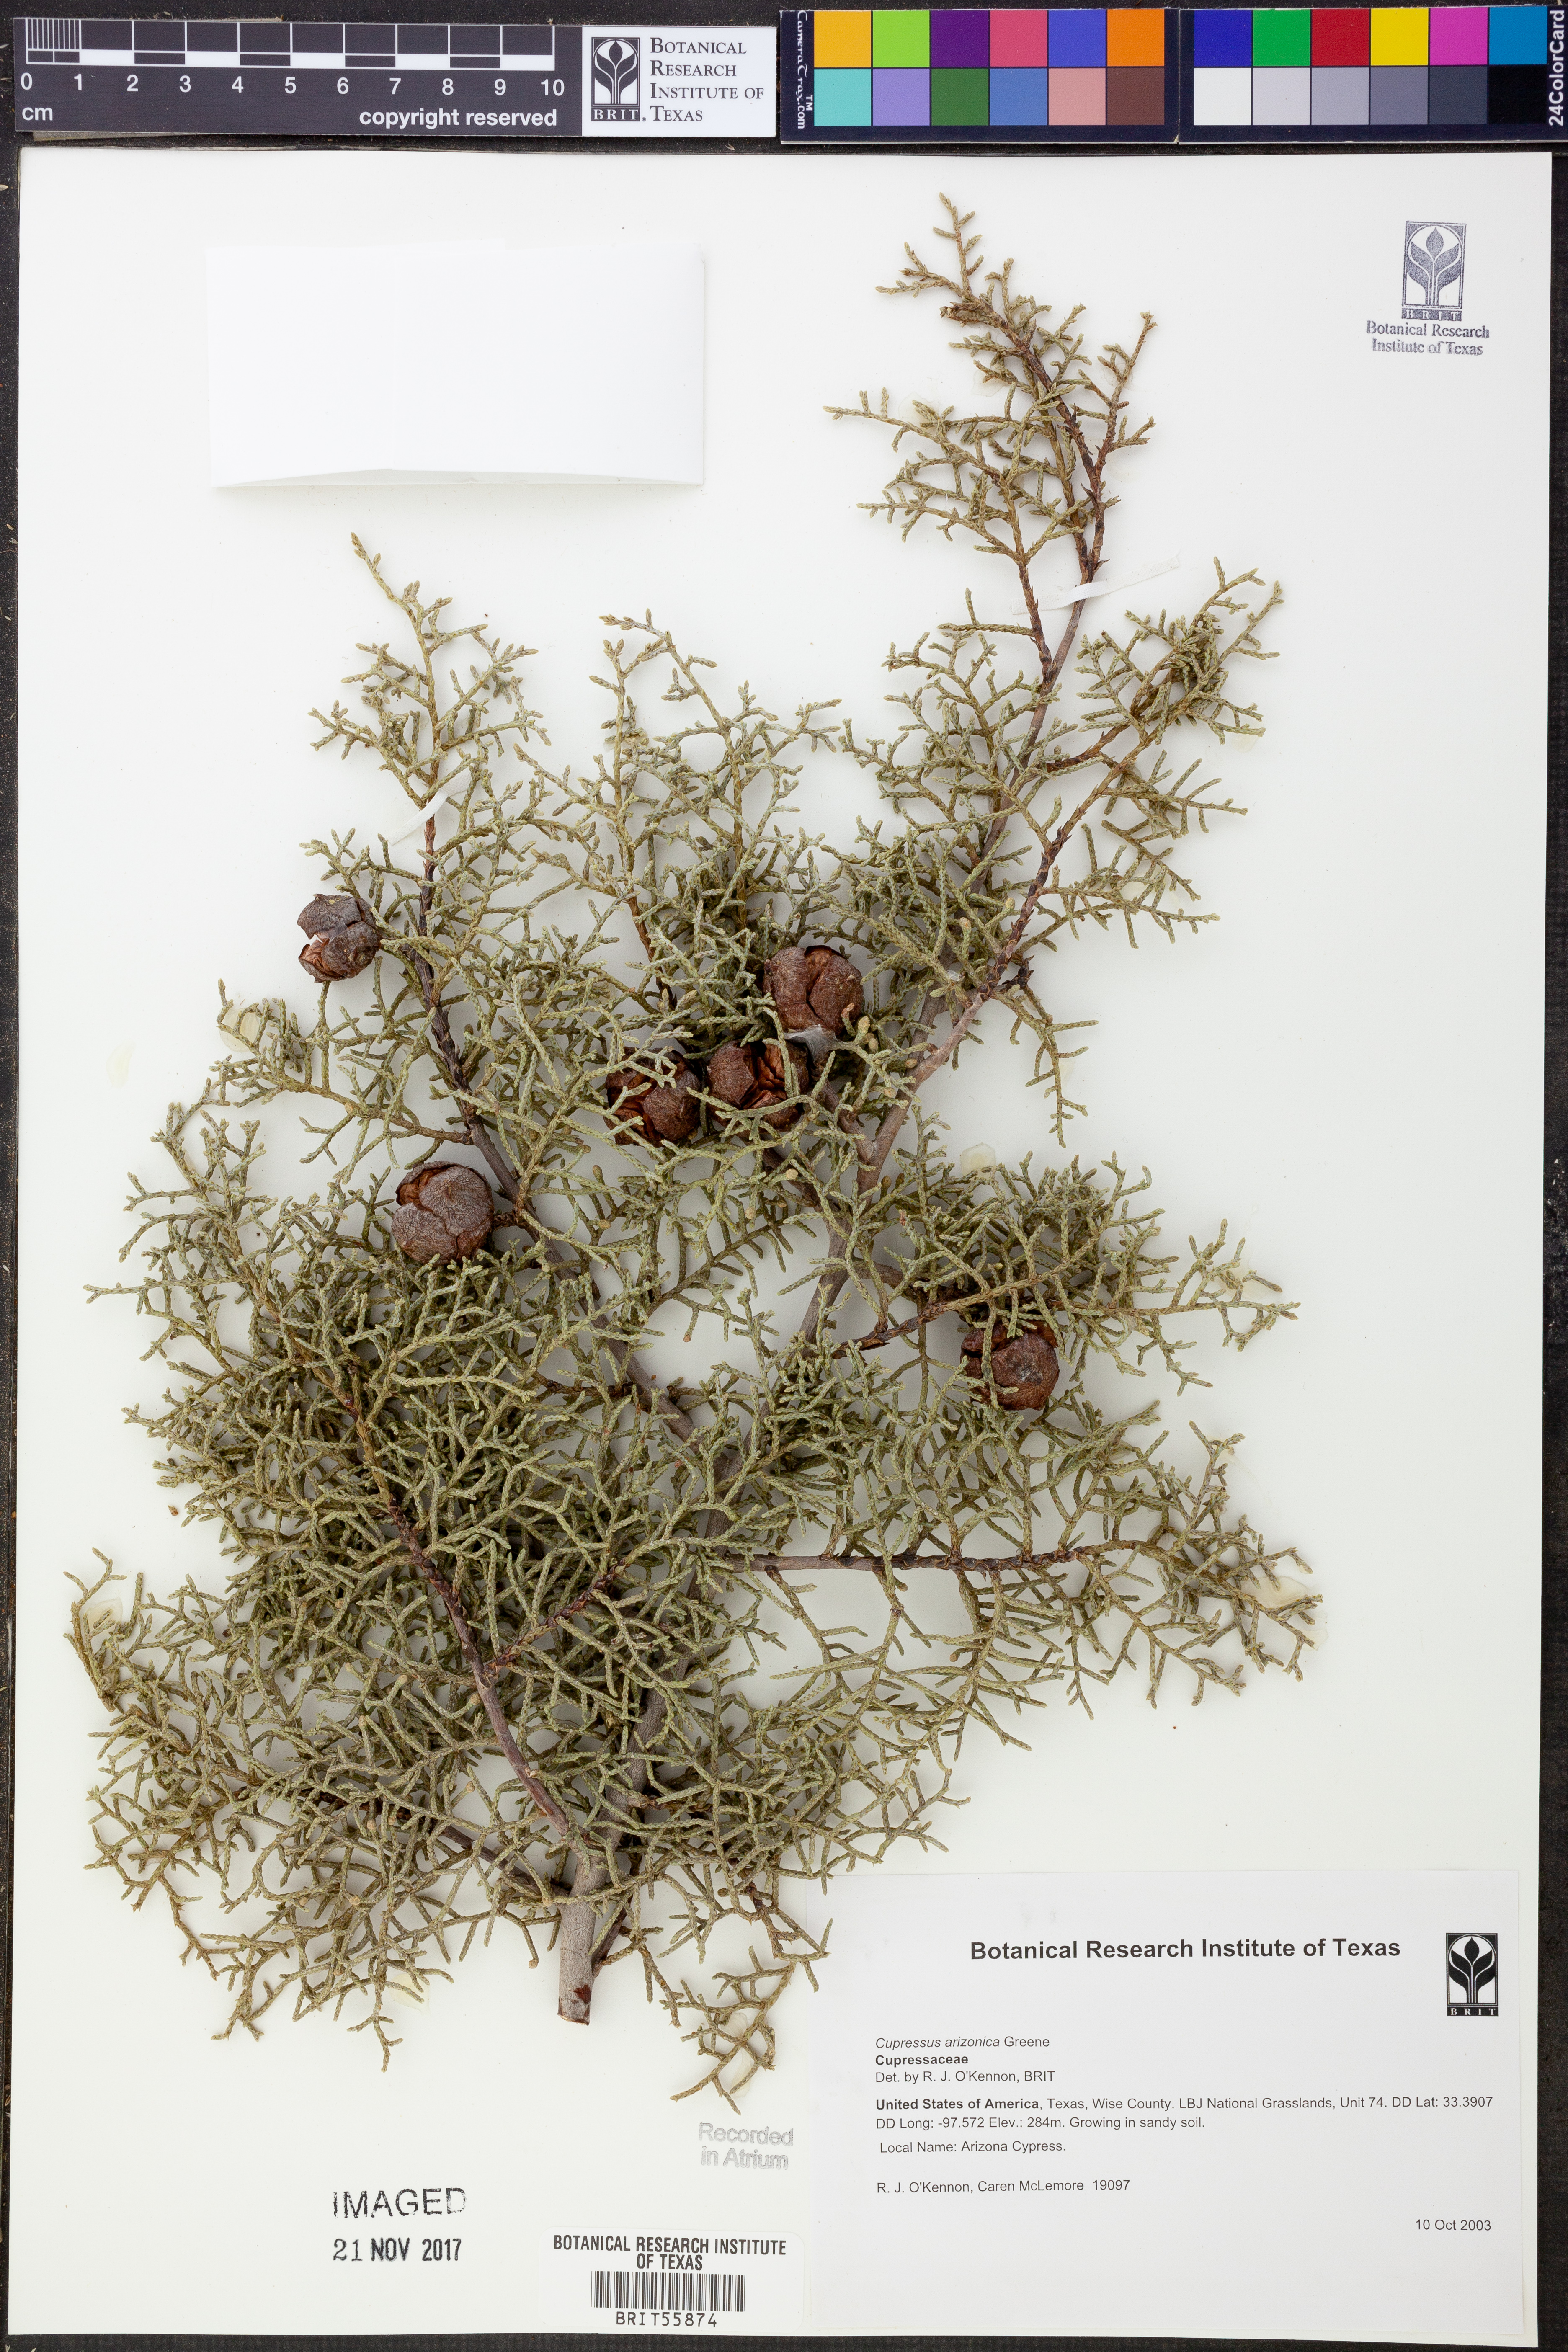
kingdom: Plantae
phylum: Tracheophyta
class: Pinopsida
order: Pinales
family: Cupressaceae
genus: Cupressus
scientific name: Cupressus arizonica
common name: Arizona cypress
